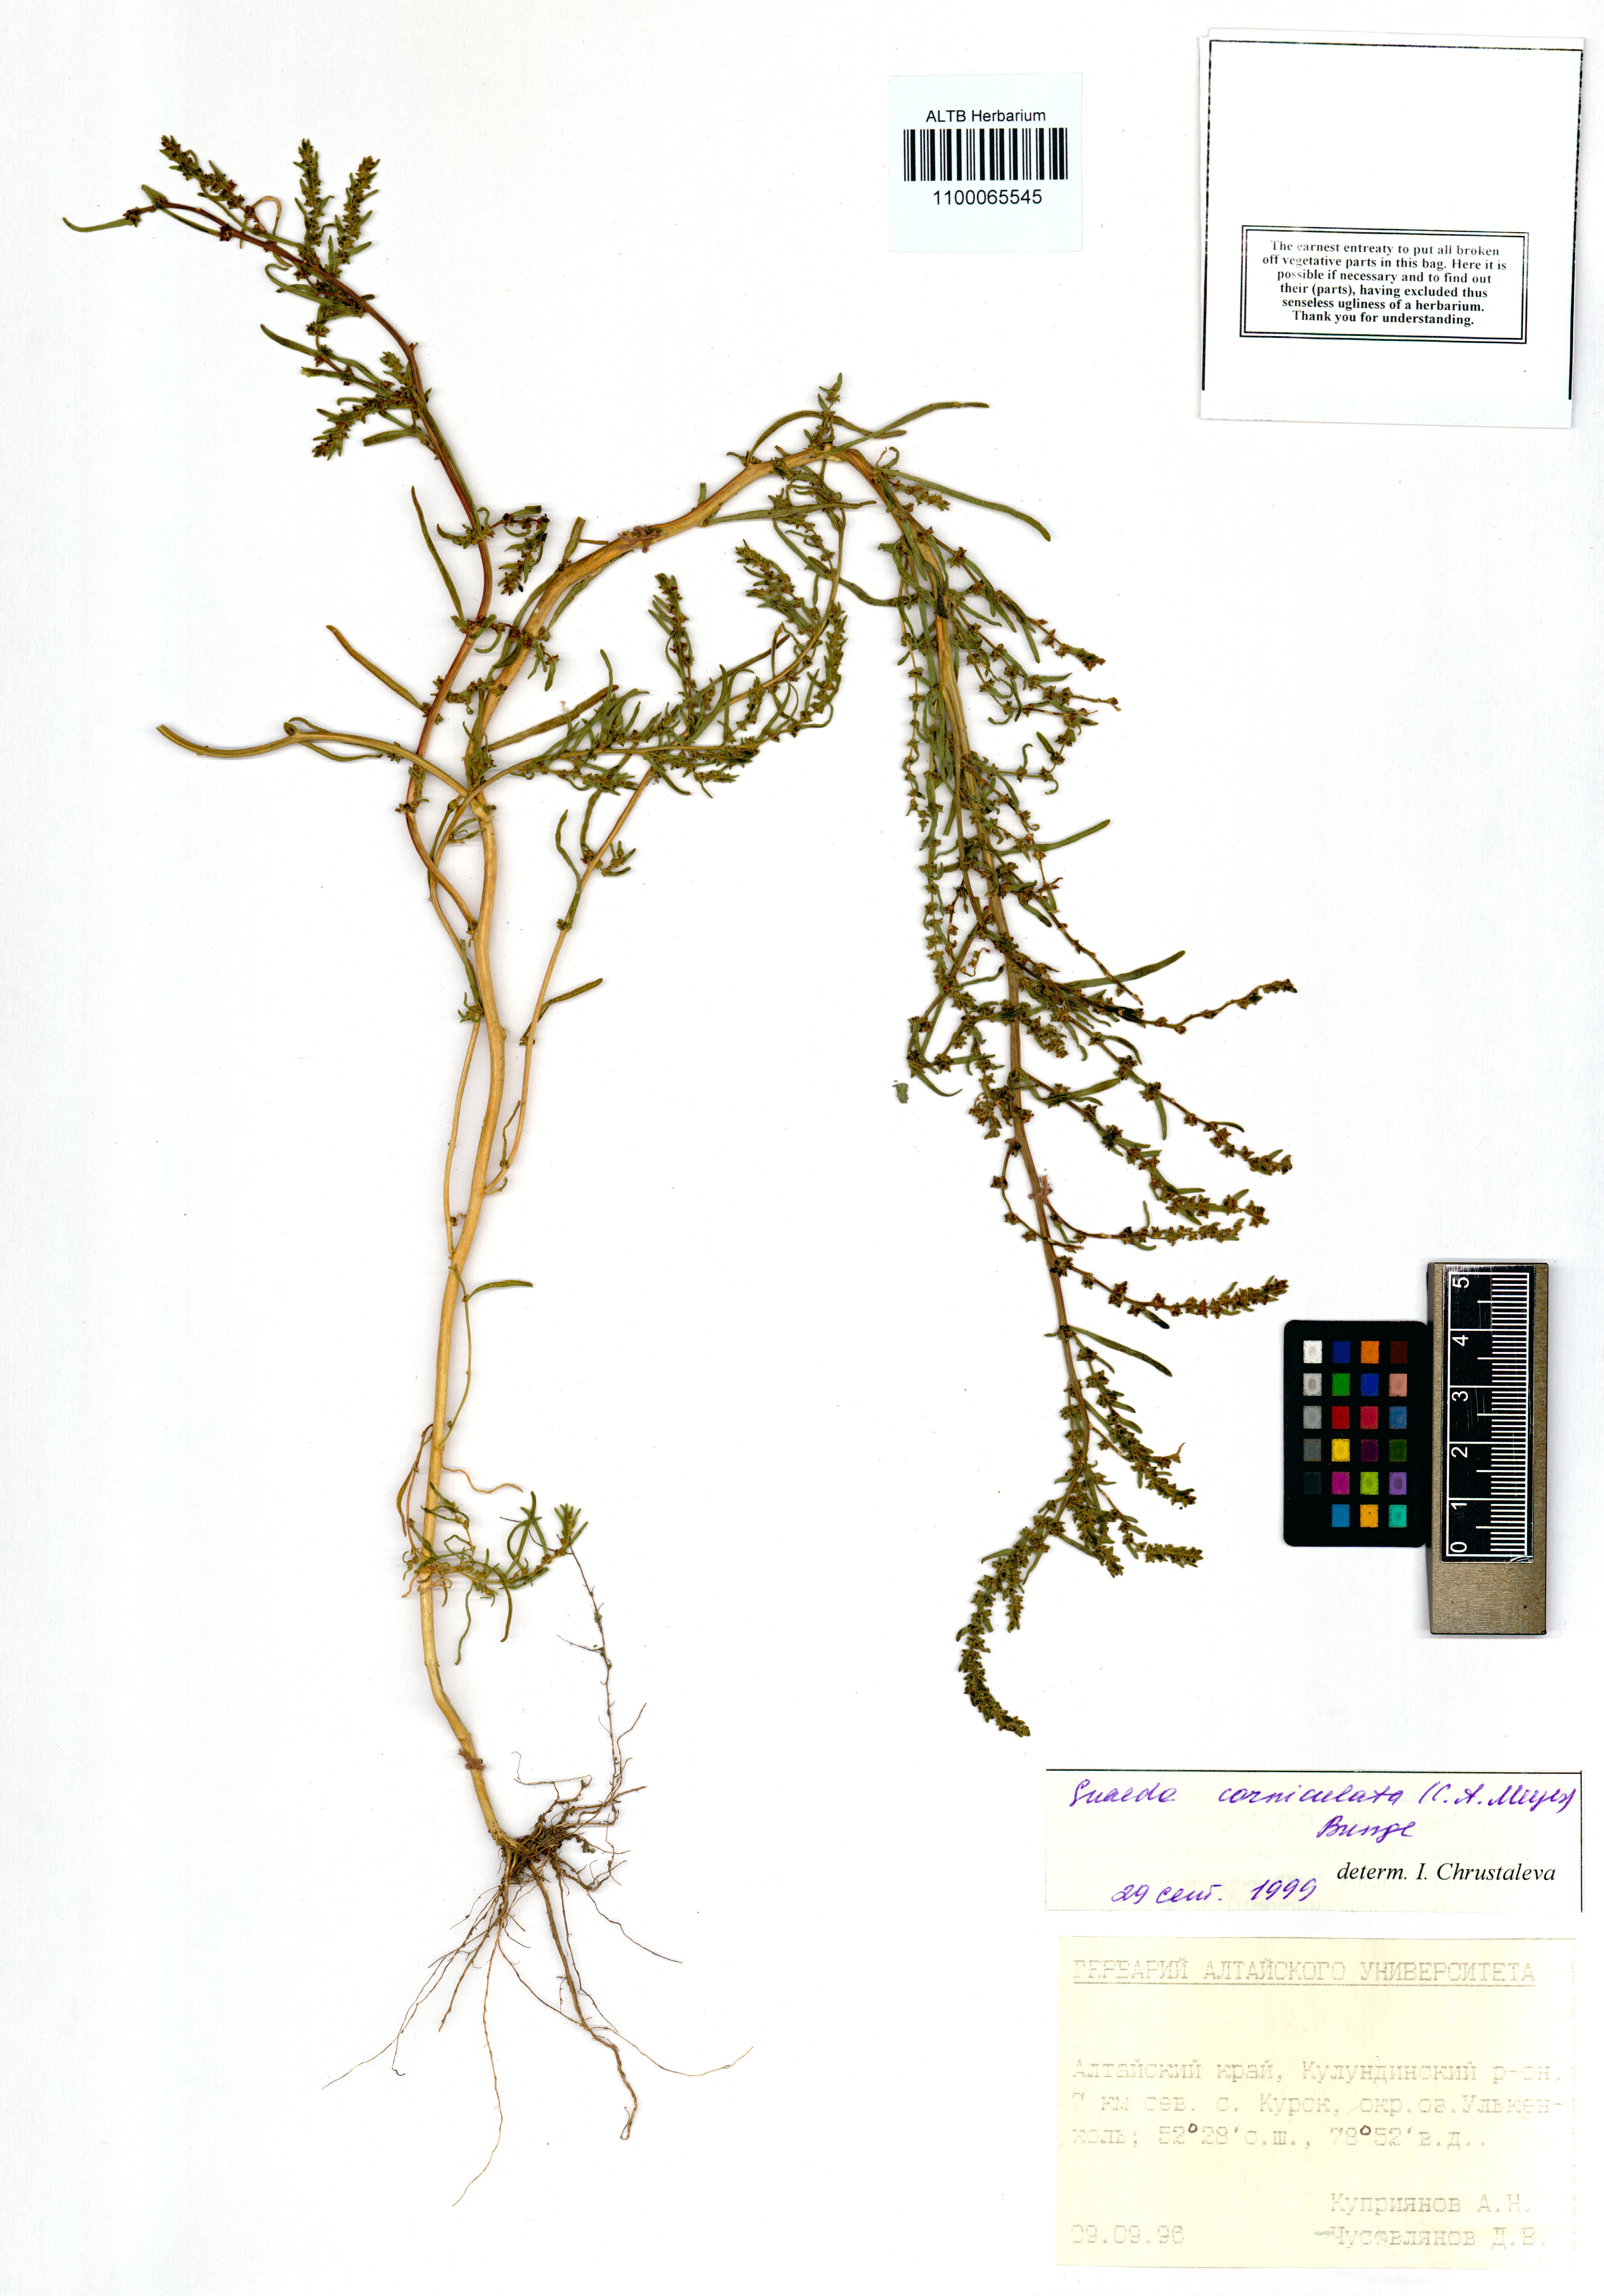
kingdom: Plantae
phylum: Tracheophyta
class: Magnoliopsida
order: Caryophyllales
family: Amaranthaceae
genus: Suaeda
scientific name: Suaeda corniculata
